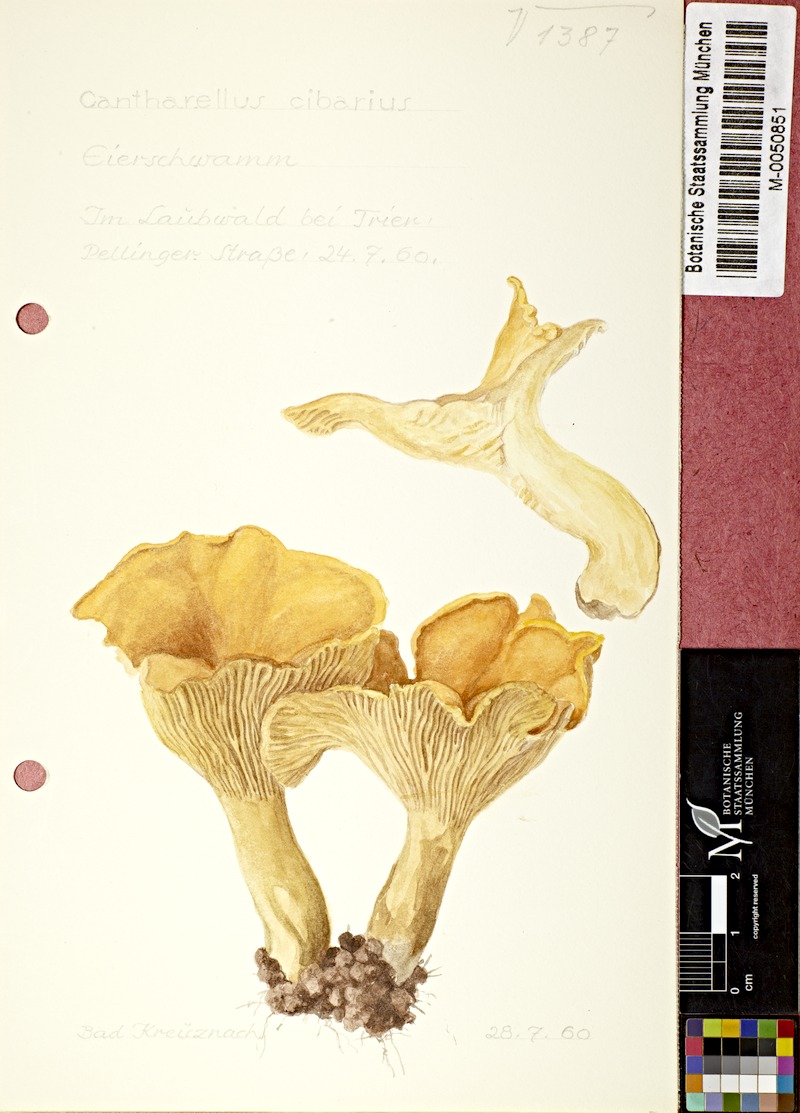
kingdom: Fungi
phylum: Basidiomycota
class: Agaricomycetes
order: Cantharellales
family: Hydnaceae
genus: Cantharellus
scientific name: Cantharellus cibarius
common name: Chanterelle
